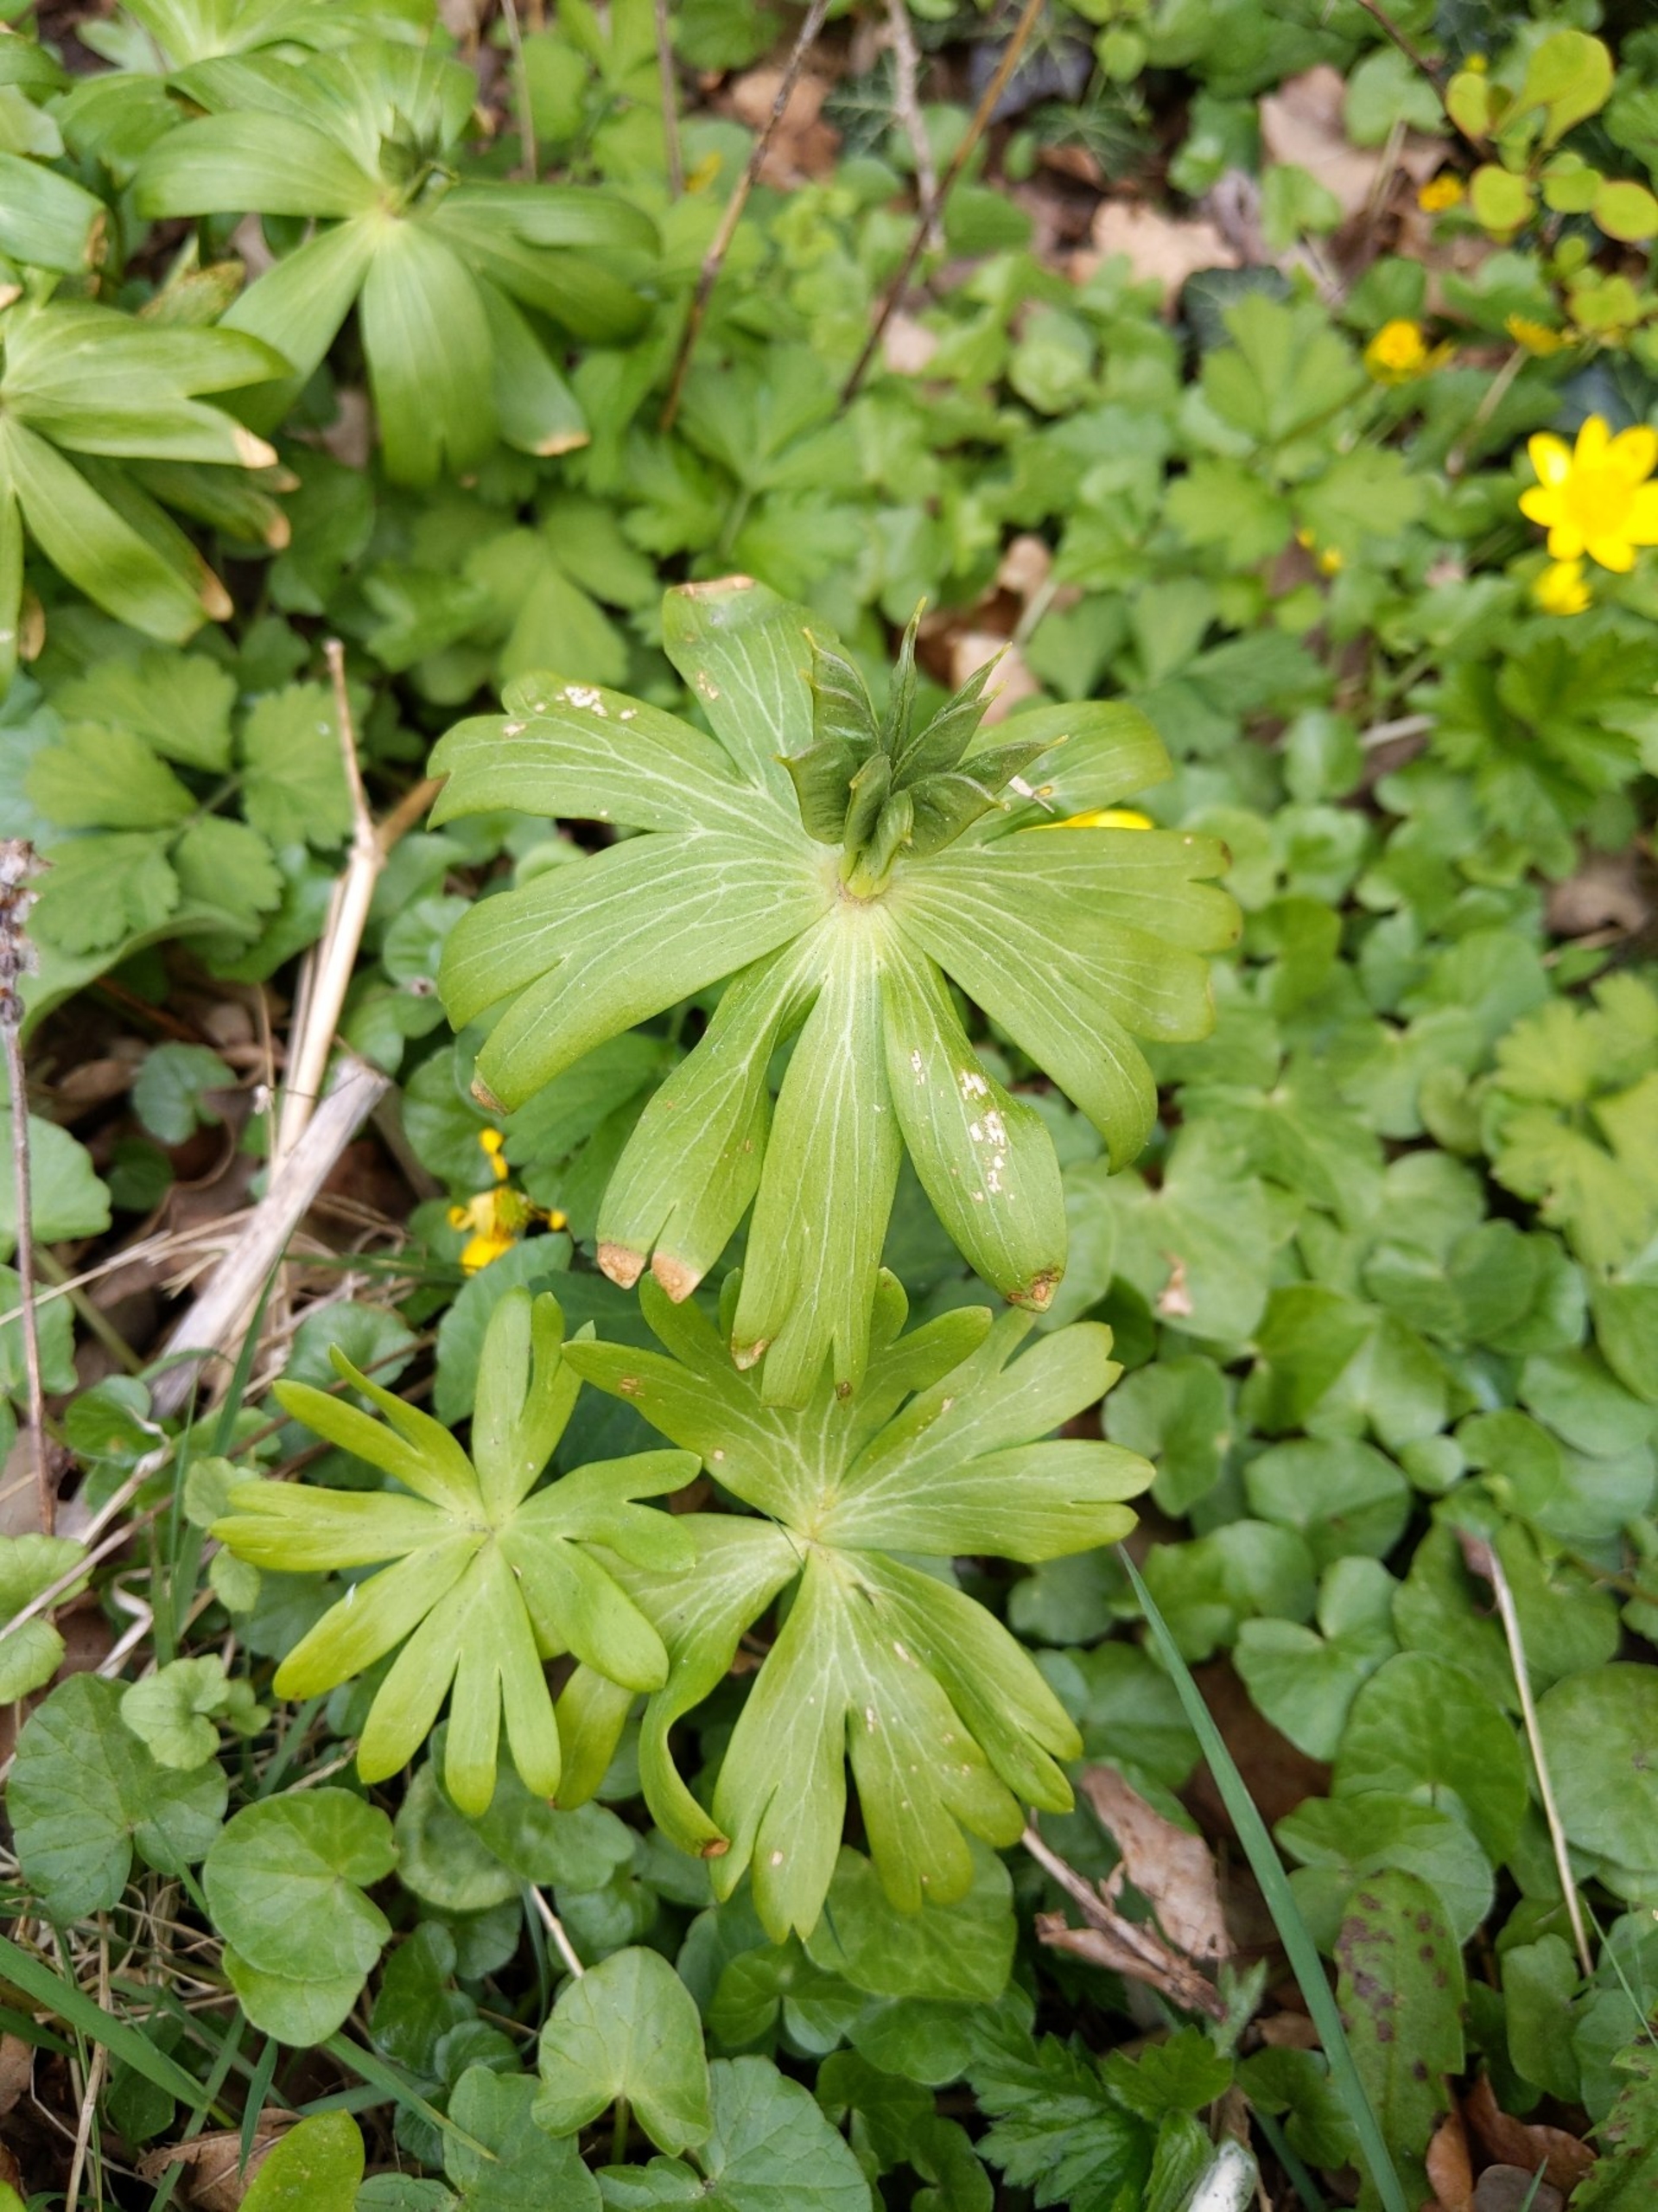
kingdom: Plantae
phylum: Tracheophyta
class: Magnoliopsida
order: Ranunculales
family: Ranunculaceae
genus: Eranthis
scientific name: Eranthis hyemalis
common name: Erantis
